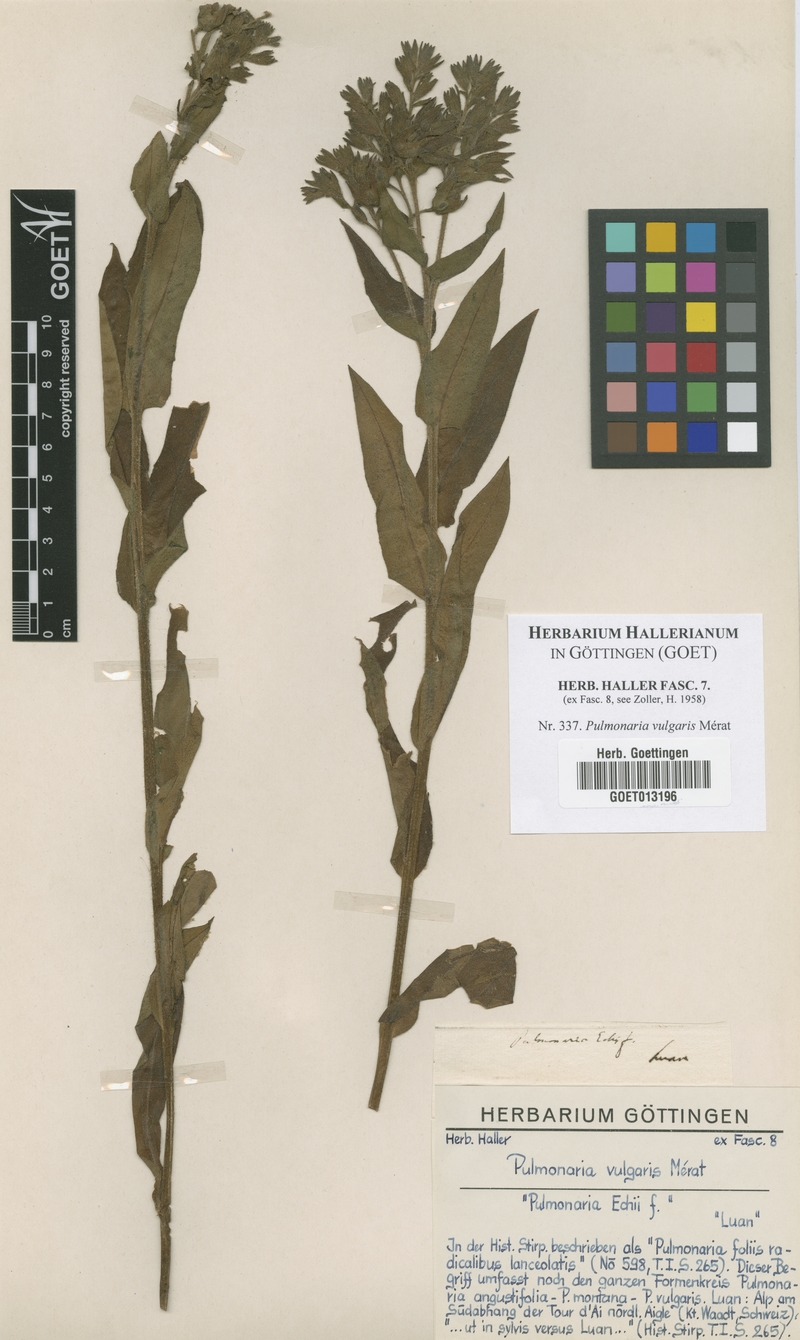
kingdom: Plantae
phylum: Tracheophyta
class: Magnoliopsida
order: Boraginales
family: Boraginaceae
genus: Pulmonaria
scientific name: Pulmonaria saccharata
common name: Bethlehem lungwort
